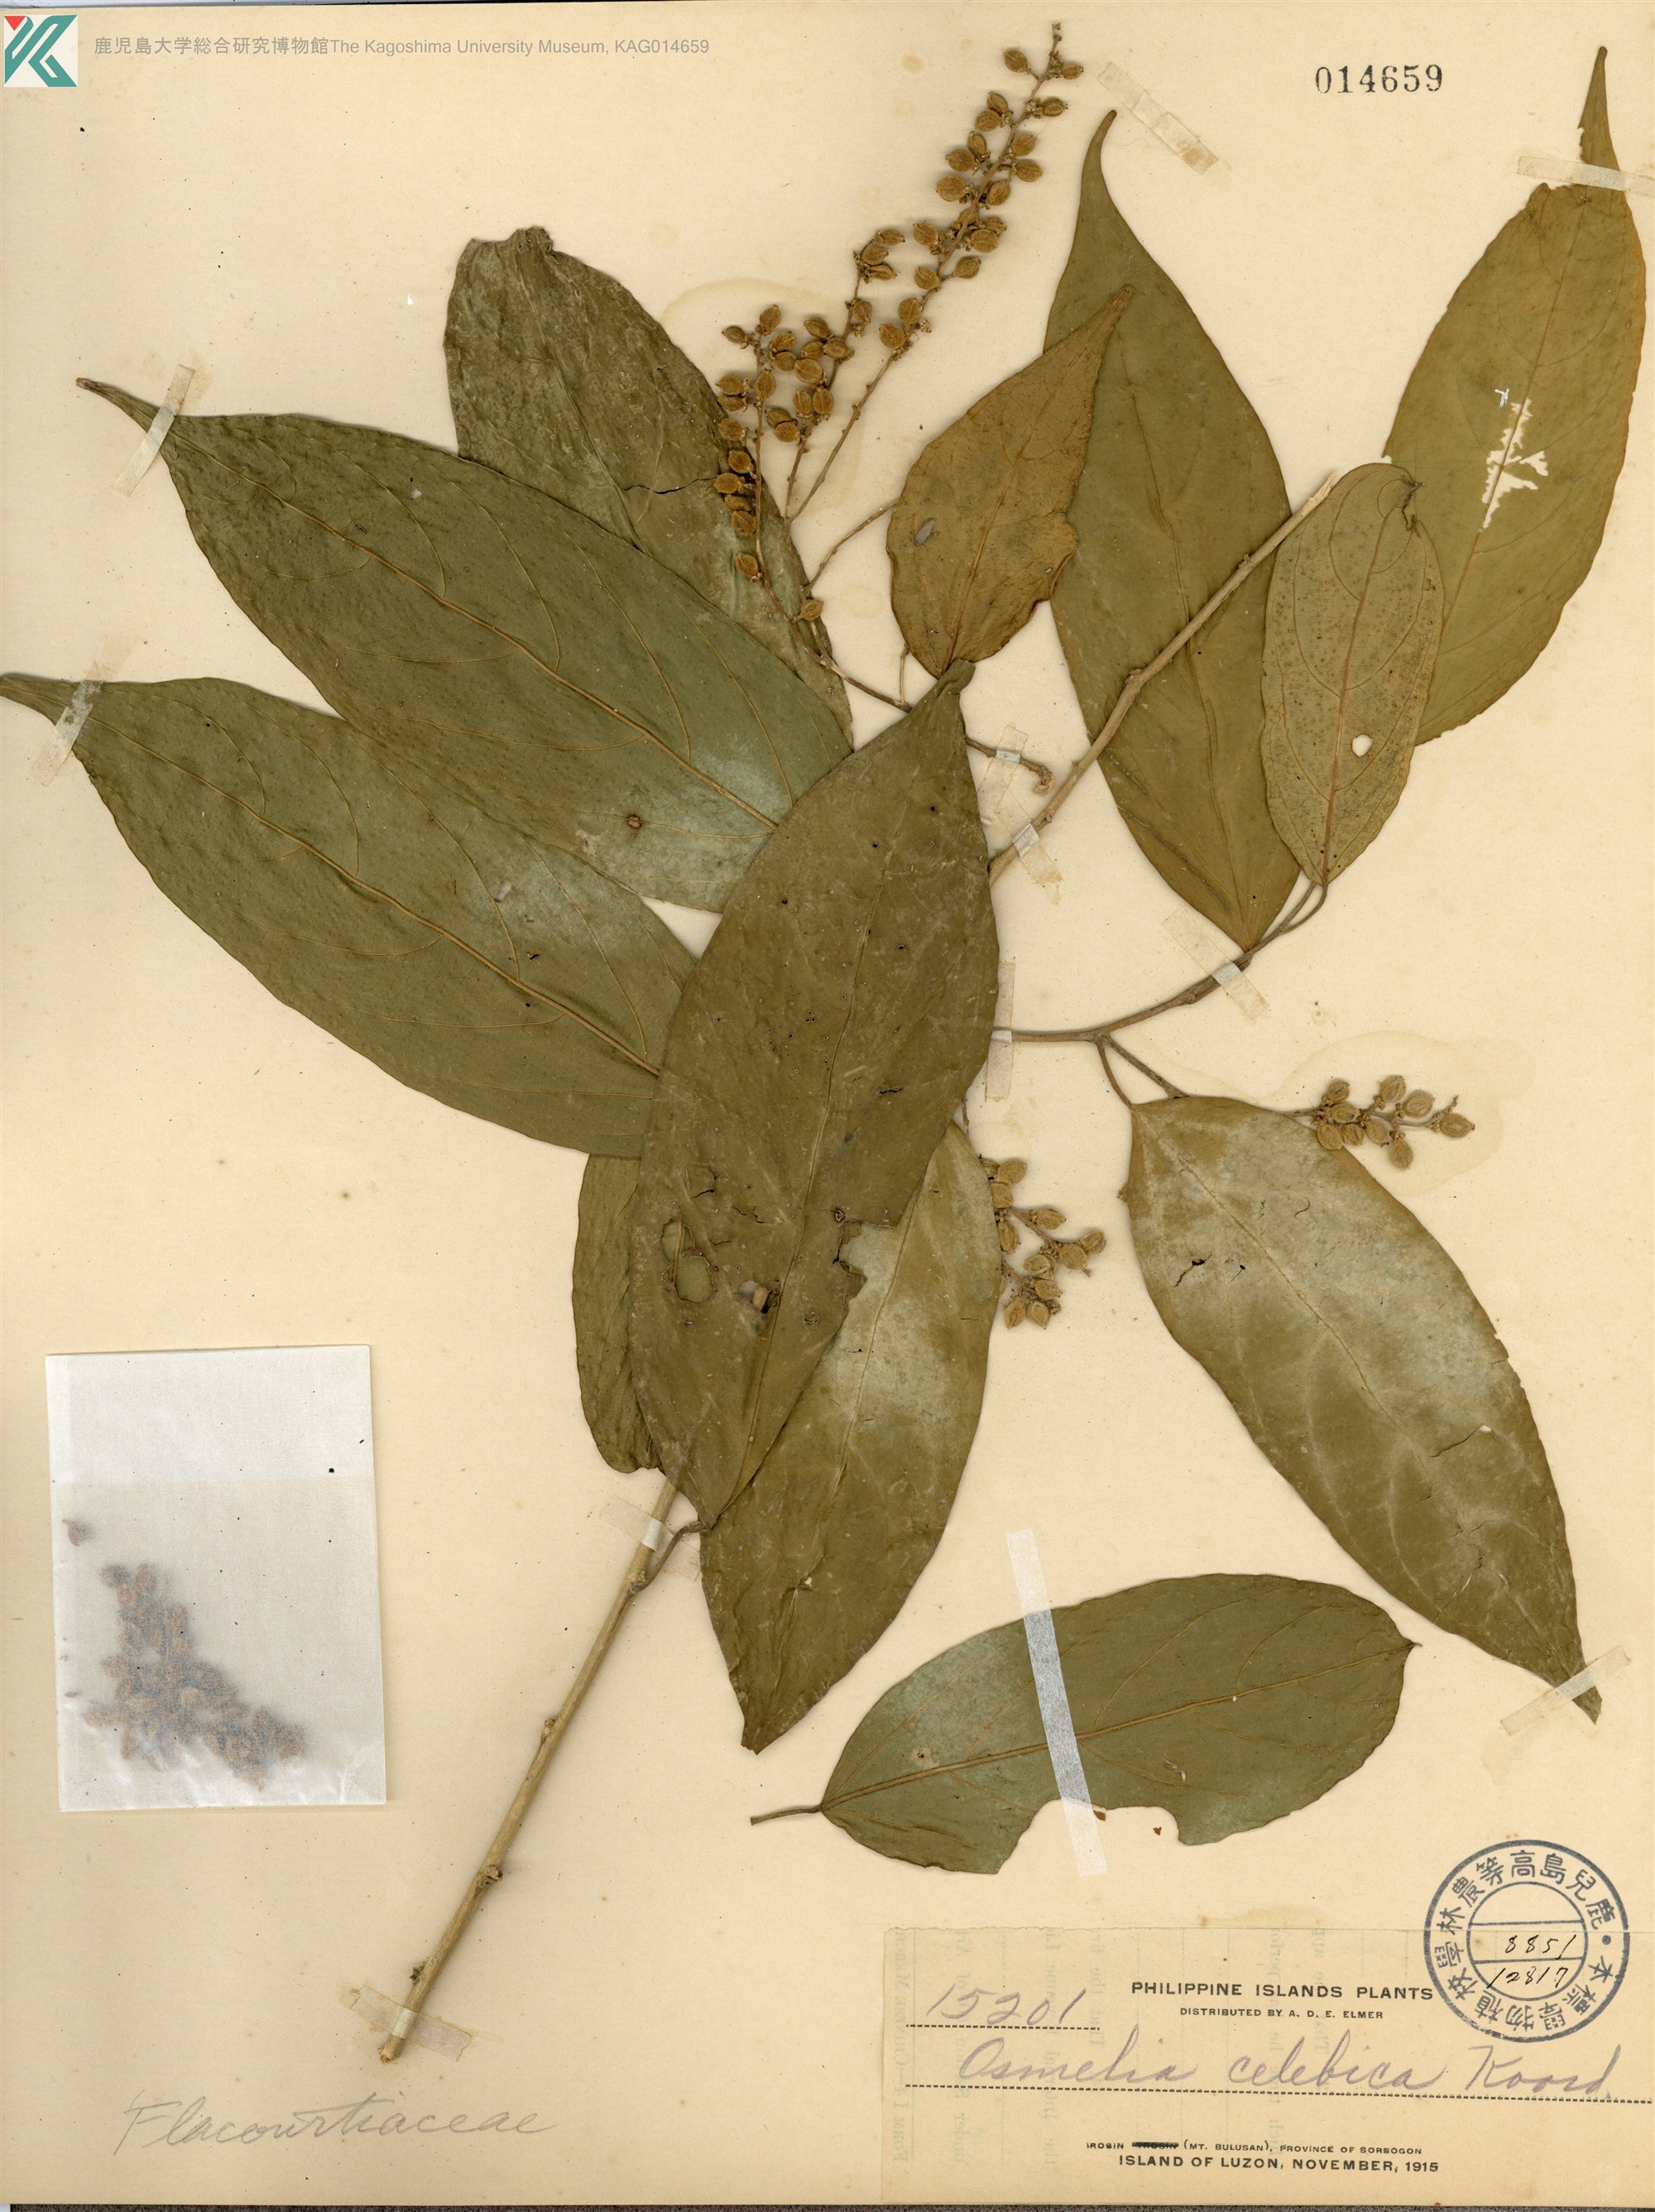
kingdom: Plantae
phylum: Tracheophyta
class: Magnoliopsida
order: Malpighiales
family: Salicaceae
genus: Osmelia
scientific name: Osmelia philippina
